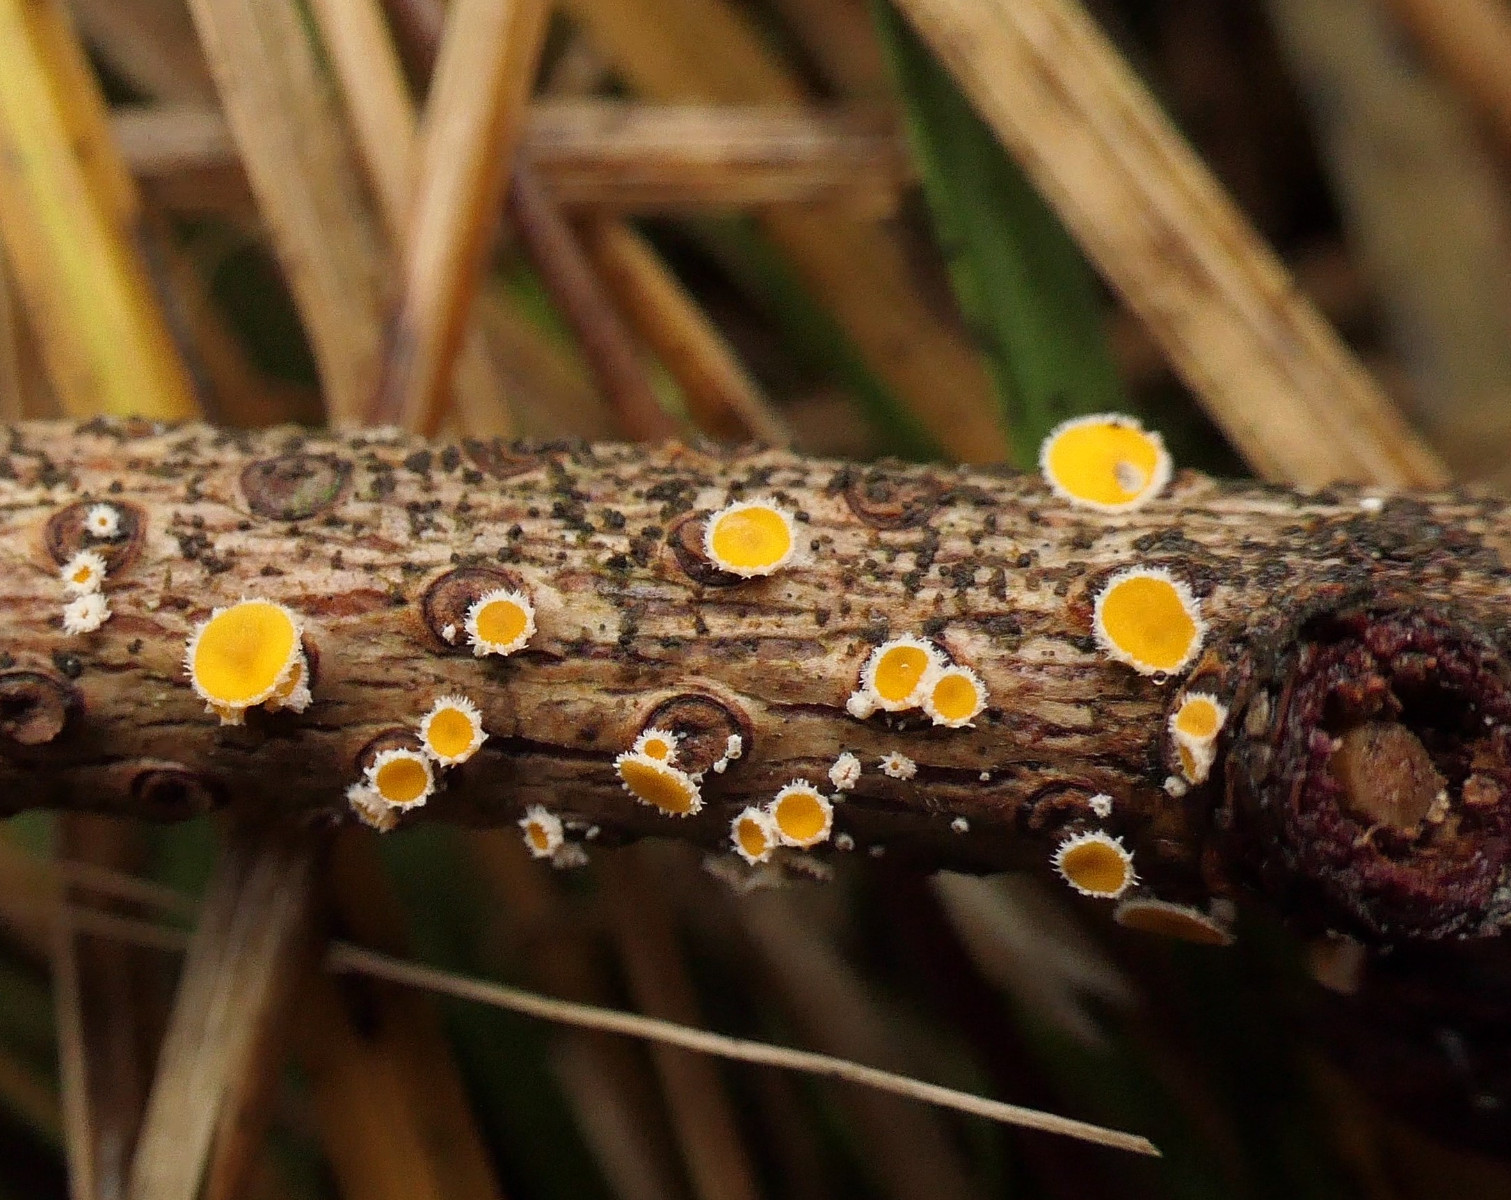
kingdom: Fungi
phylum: Ascomycota
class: Leotiomycetes
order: Helotiales
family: Lachnaceae
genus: Perrotia
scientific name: Perrotia gallica
